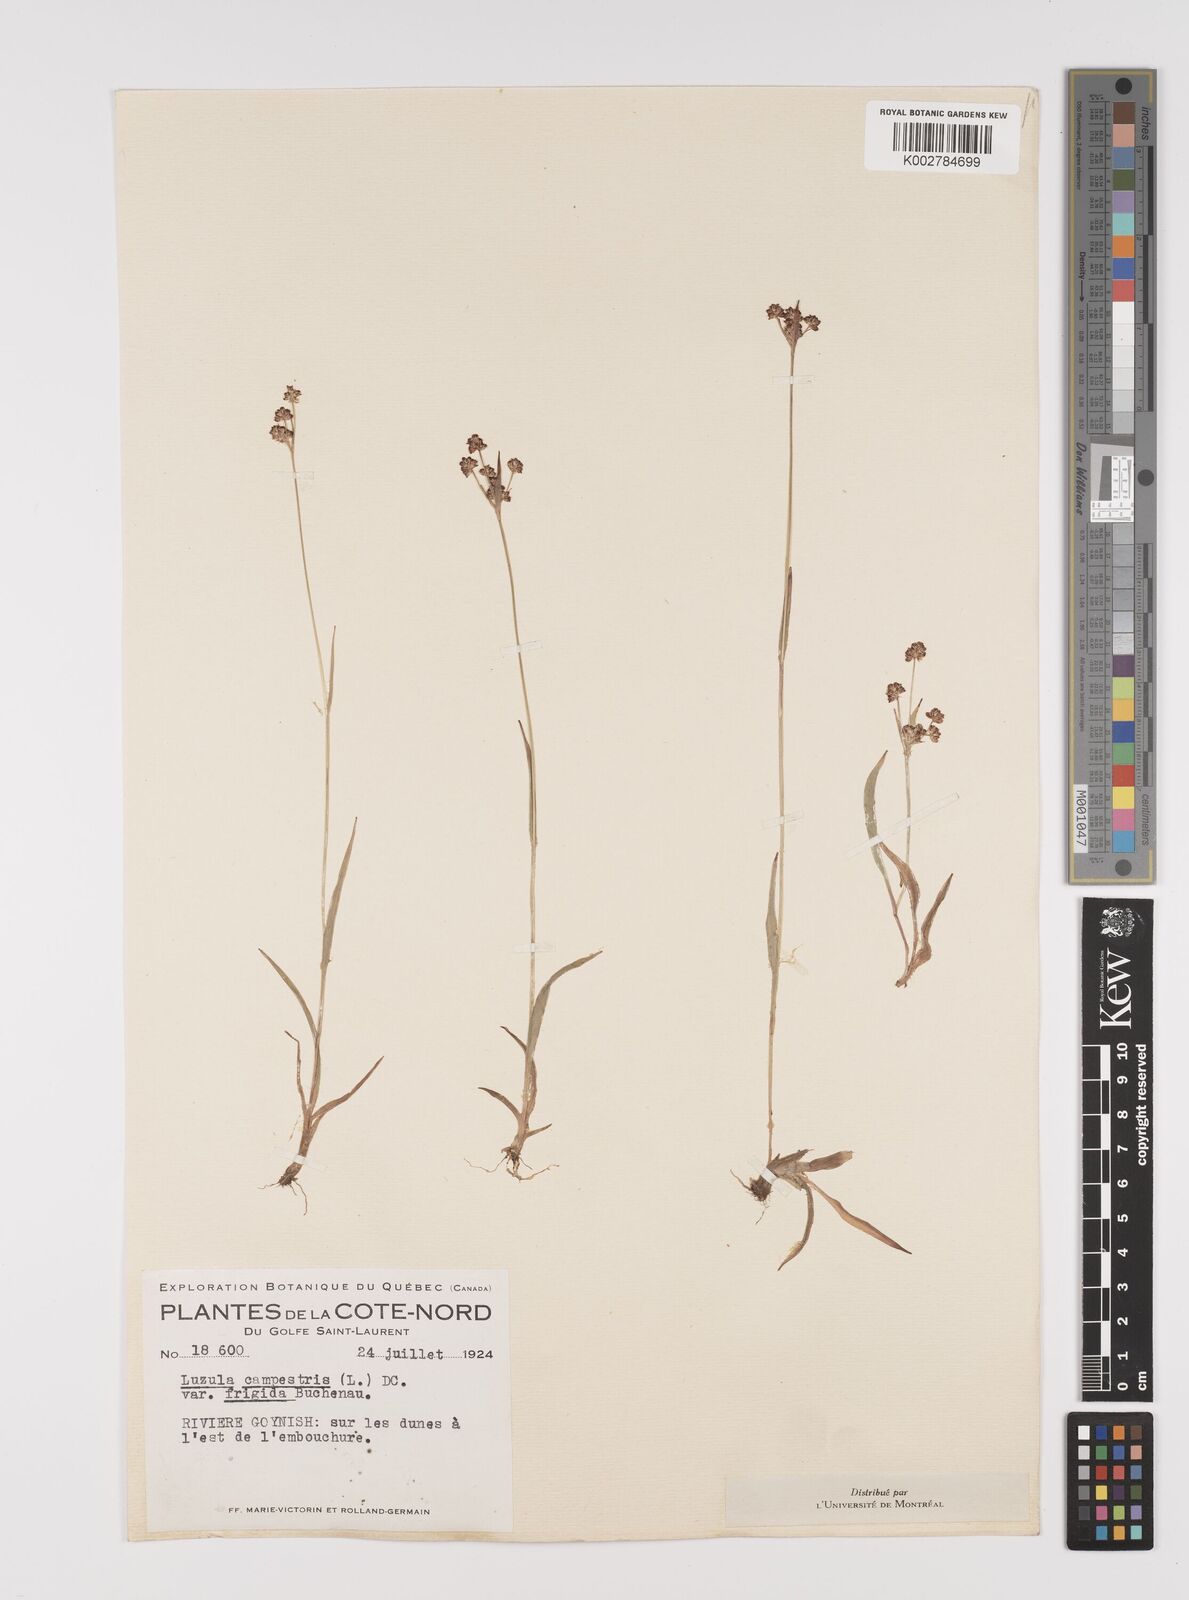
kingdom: Plantae
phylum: Tracheophyta
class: Liliopsida
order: Poales
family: Juncaceae
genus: Luzula
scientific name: Luzula multiflora
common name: Heath wood-rush
